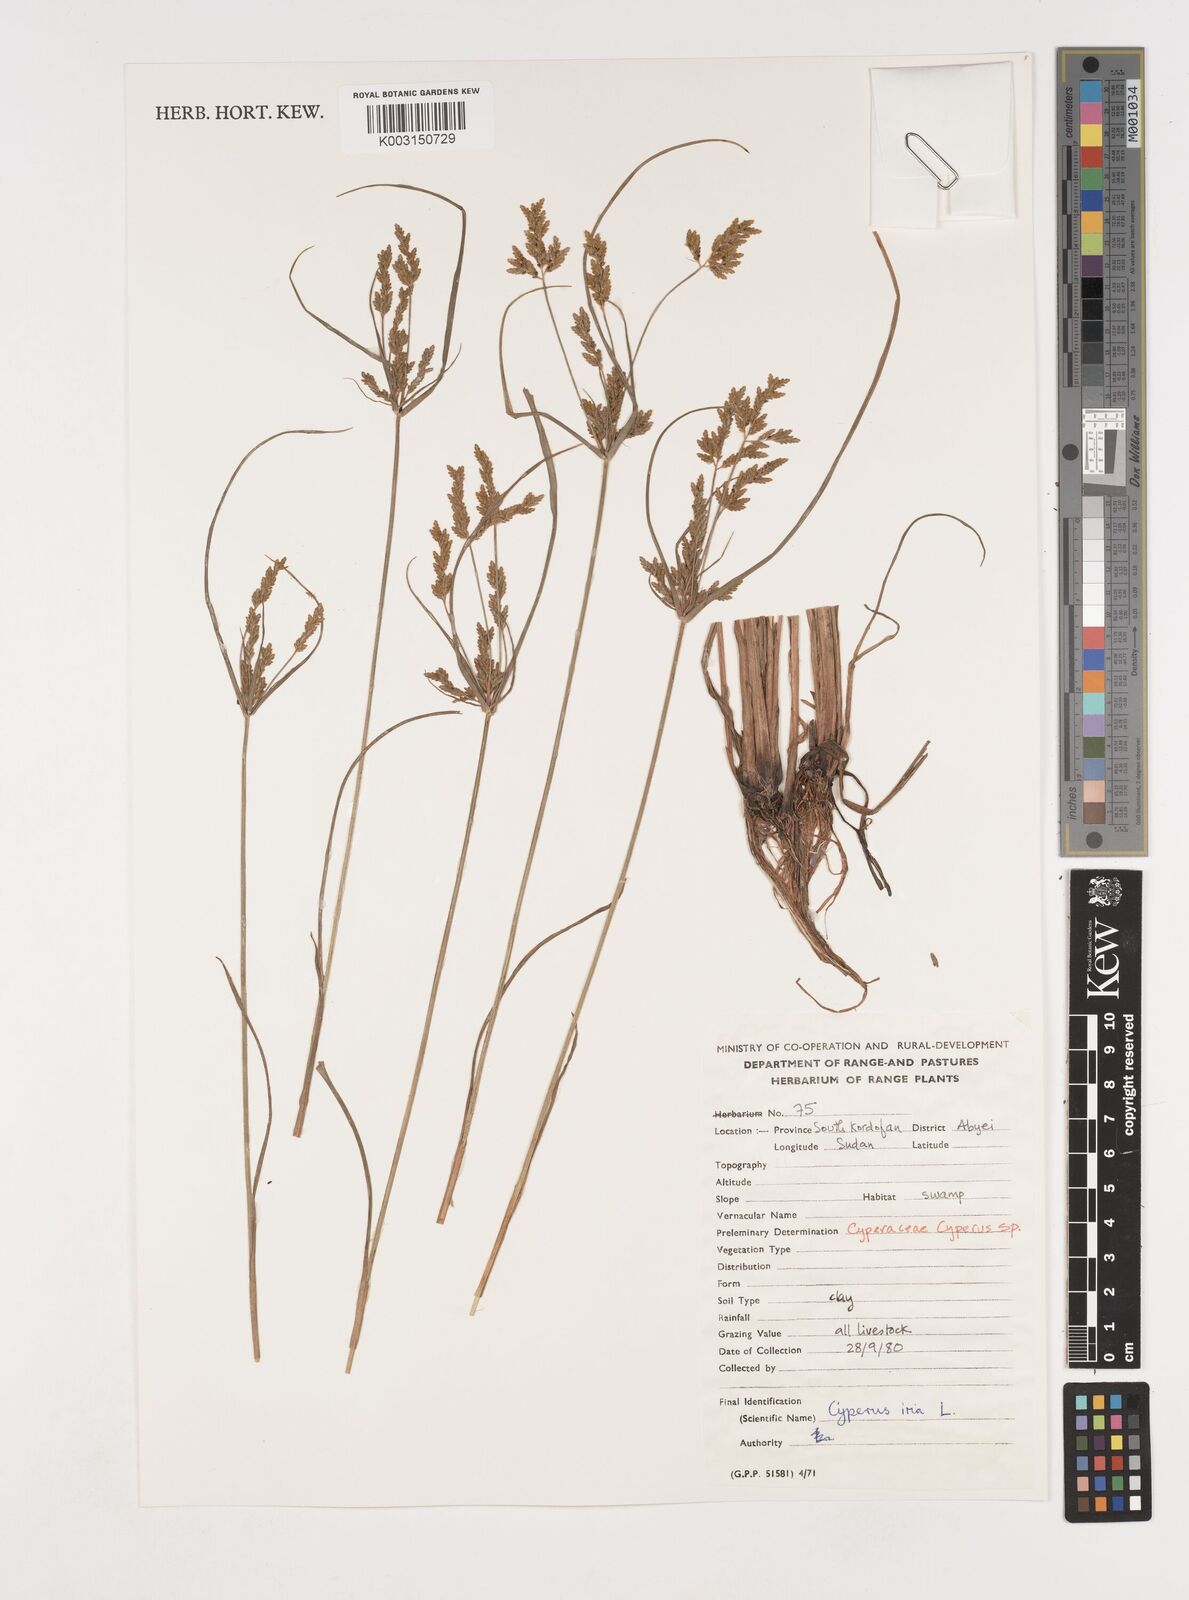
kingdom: Plantae
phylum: Tracheophyta
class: Liliopsida
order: Poales
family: Cyperaceae
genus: Cyperus
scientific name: Cyperus iria
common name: Ricefield flatsedge
